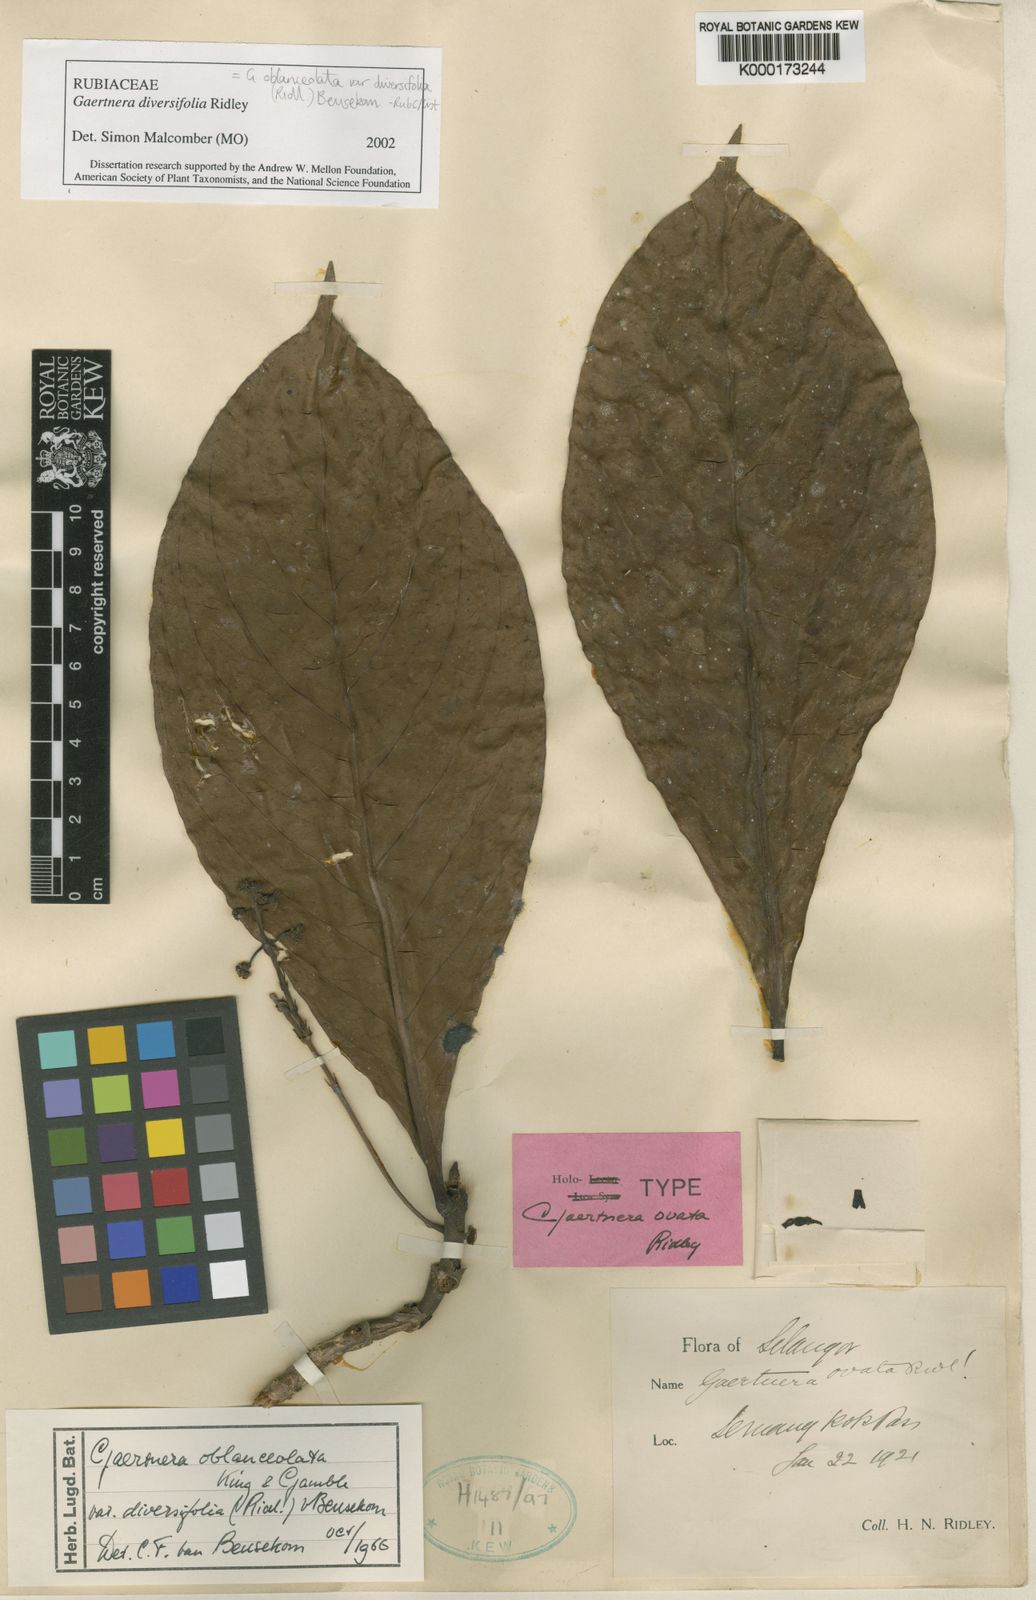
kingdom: Plantae
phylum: Tracheophyta
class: Magnoliopsida
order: Gentianales
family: Rubiaceae
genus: Gaertnera
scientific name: Gaertnera diversifolia
